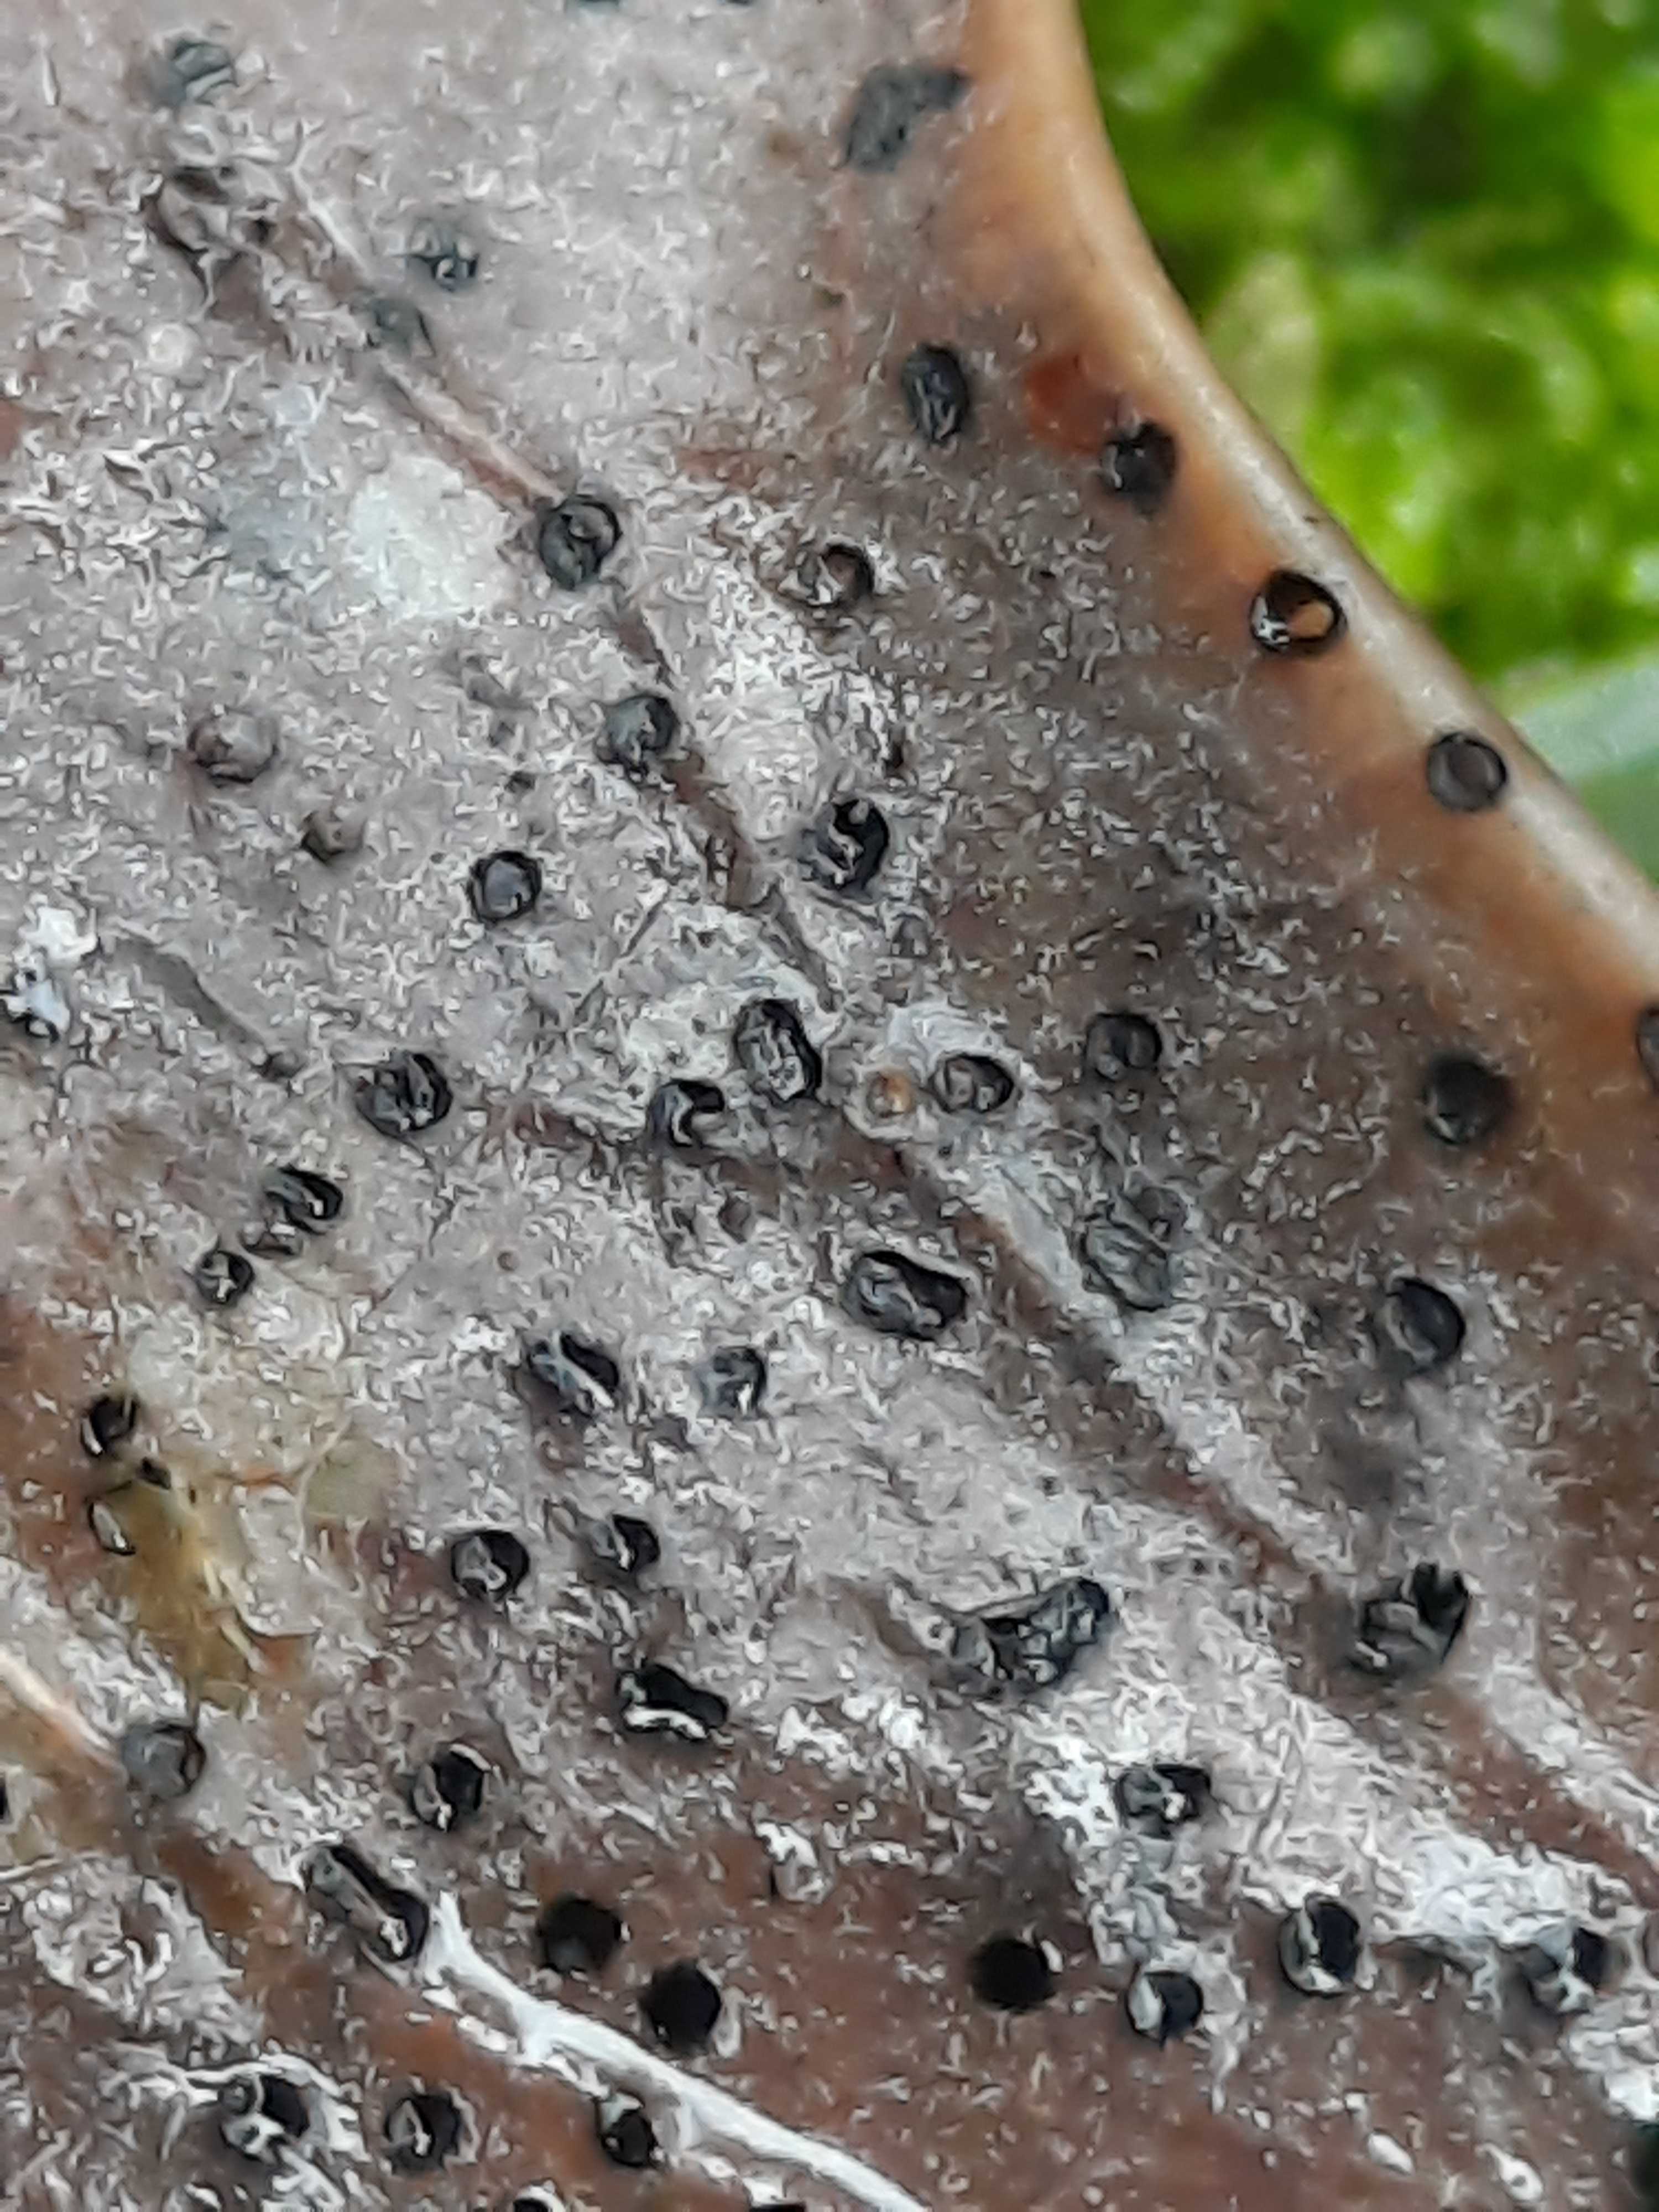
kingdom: Fungi
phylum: Ascomycota
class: Leotiomycetes
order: Helotiales
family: Cenangiaceae
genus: Trochila
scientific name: Trochila ilicina
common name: kristtorn-lågskive
